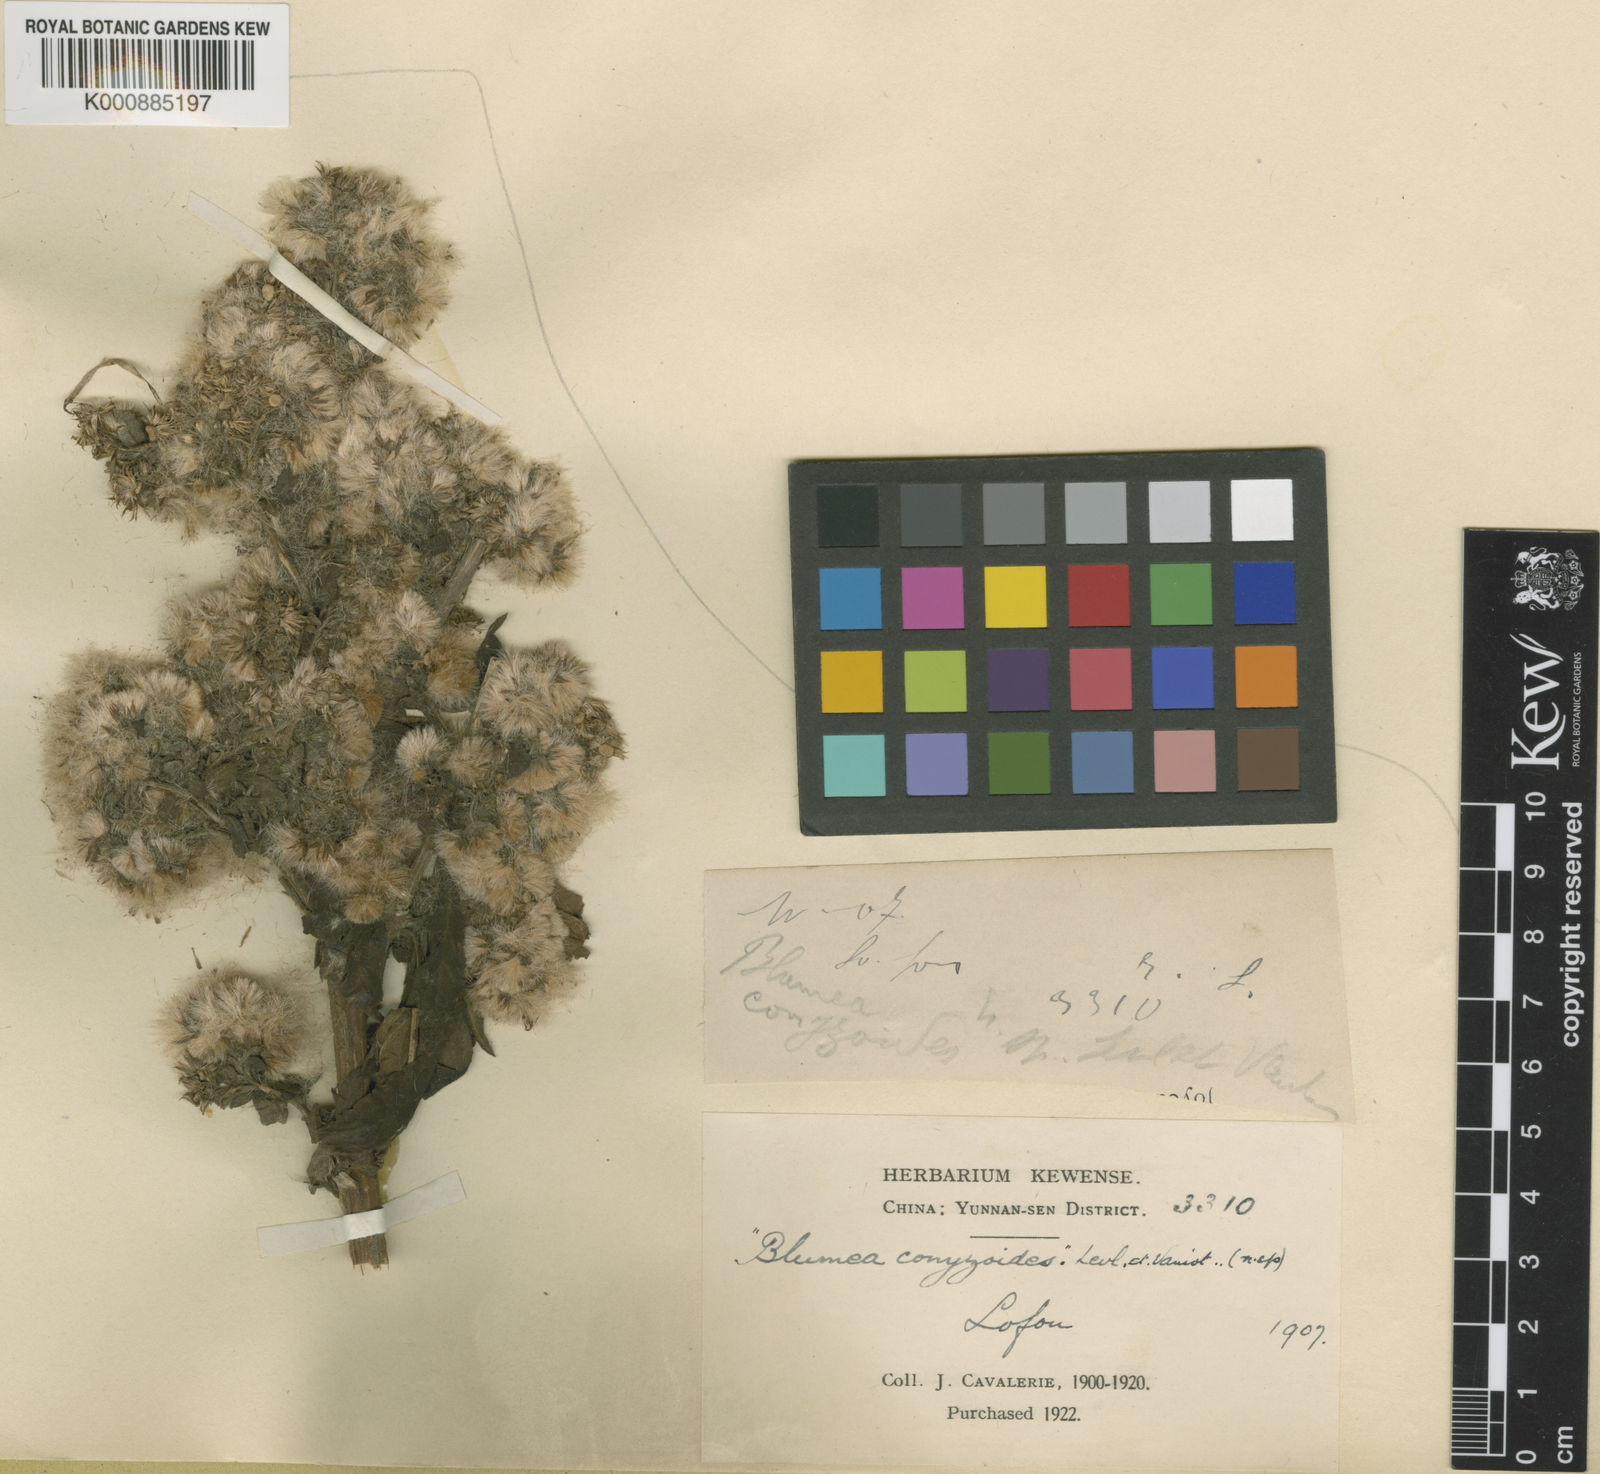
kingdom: Plantae
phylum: Tracheophyta
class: Magnoliopsida
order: Asterales
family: Asteraceae
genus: Eschenbachia
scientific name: Eschenbachia leucantha
